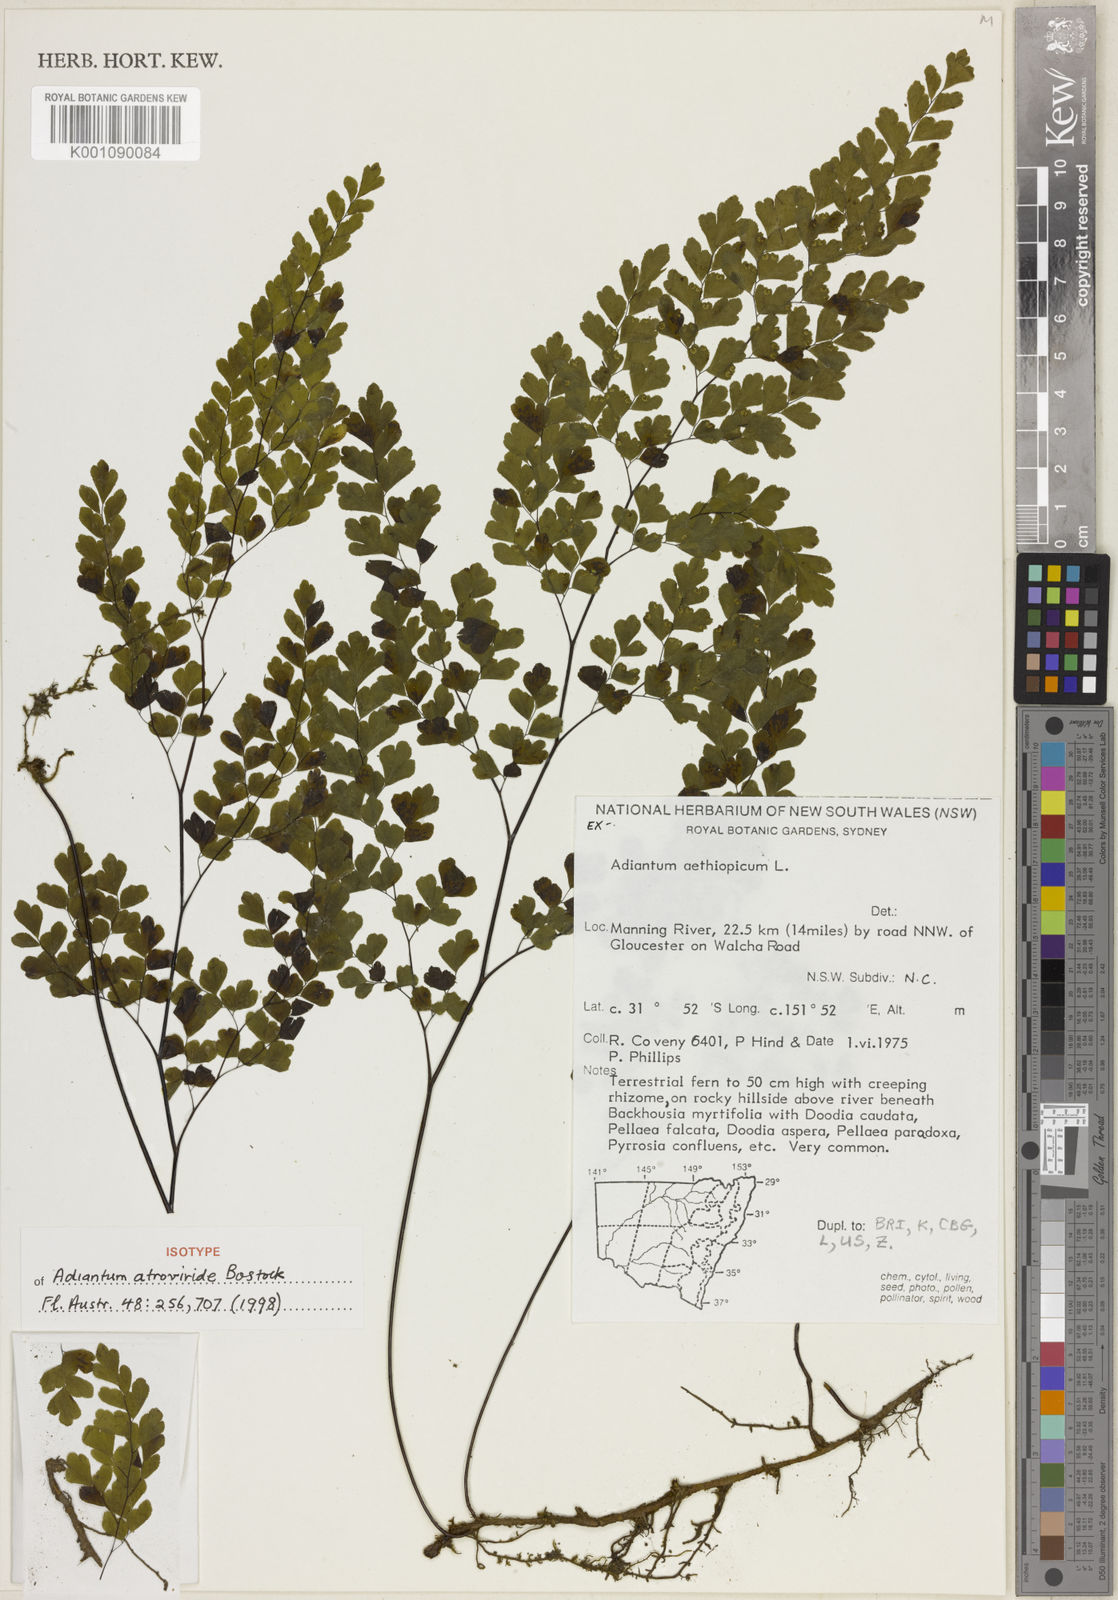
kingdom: Plantae
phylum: Tracheophyta
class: Polypodiopsida
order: Polypodiales
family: Pteridaceae
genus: Adiantum
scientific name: Adiantum atroviride
